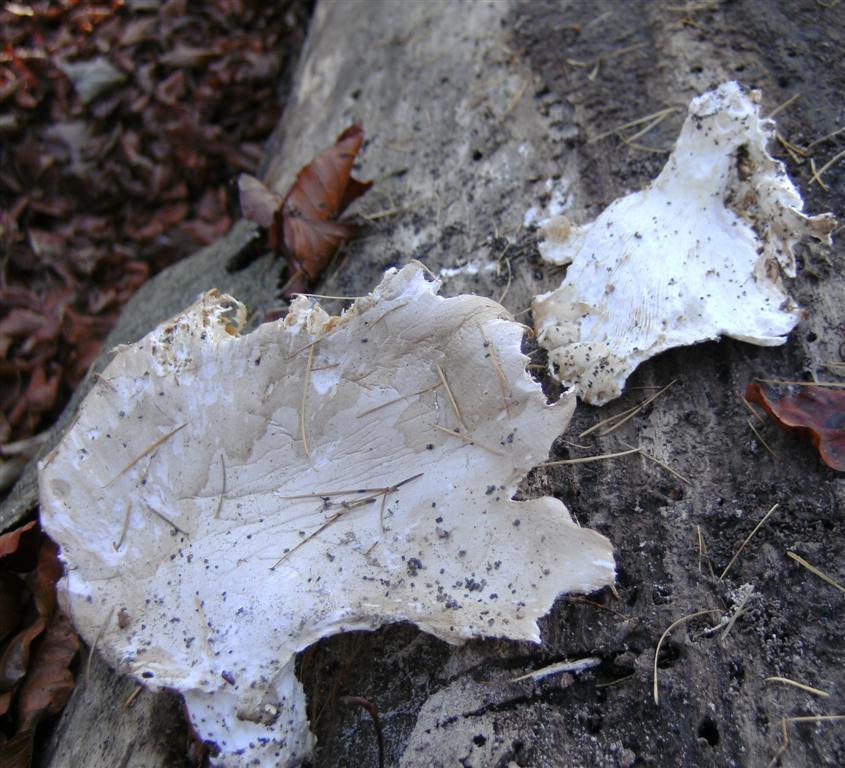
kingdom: Fungi
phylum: Basidiomycota
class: Agaricomycetes
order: Agaricales
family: Pleurotaceae
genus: Pleurotus
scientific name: Pleurotus ostreatus
